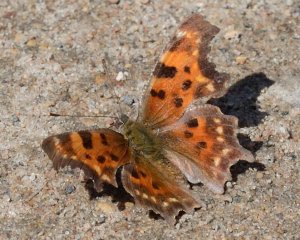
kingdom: Animalia
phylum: Arthropoda
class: Insecta
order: Lepidoptera
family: Nymphalidae
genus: Polygonia
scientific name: Polygonia faunus
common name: Green Comma
